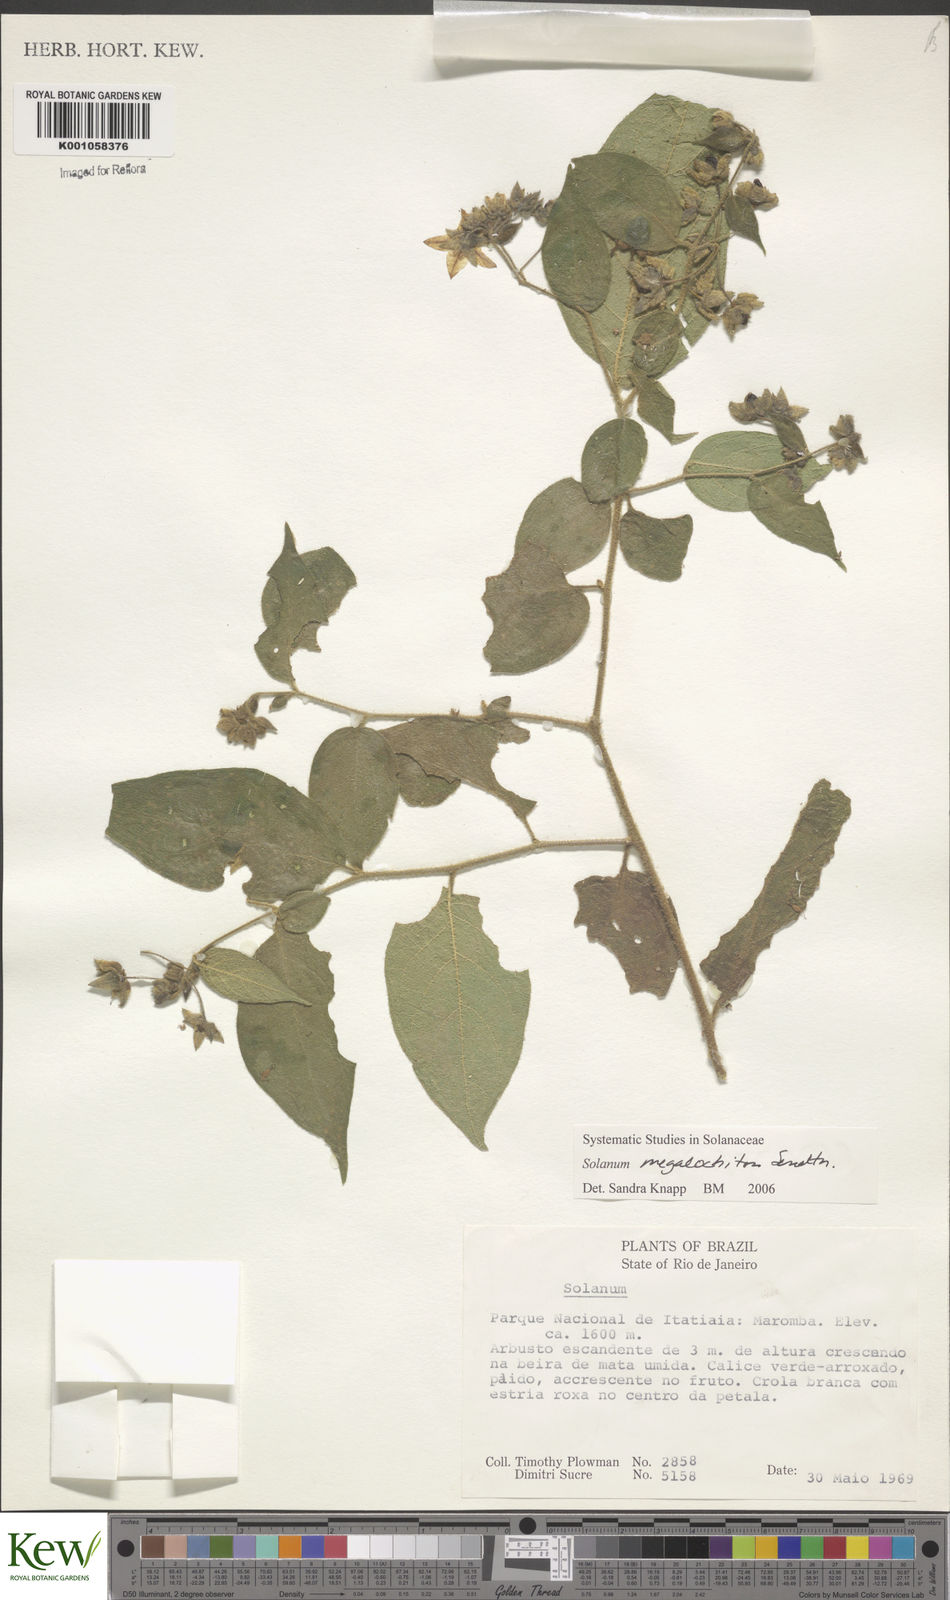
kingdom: Plantae
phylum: Tracheophyta
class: Magnoliopsida
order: Solanales
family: Solanaceae
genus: Solanum
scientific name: Solanum didymum
